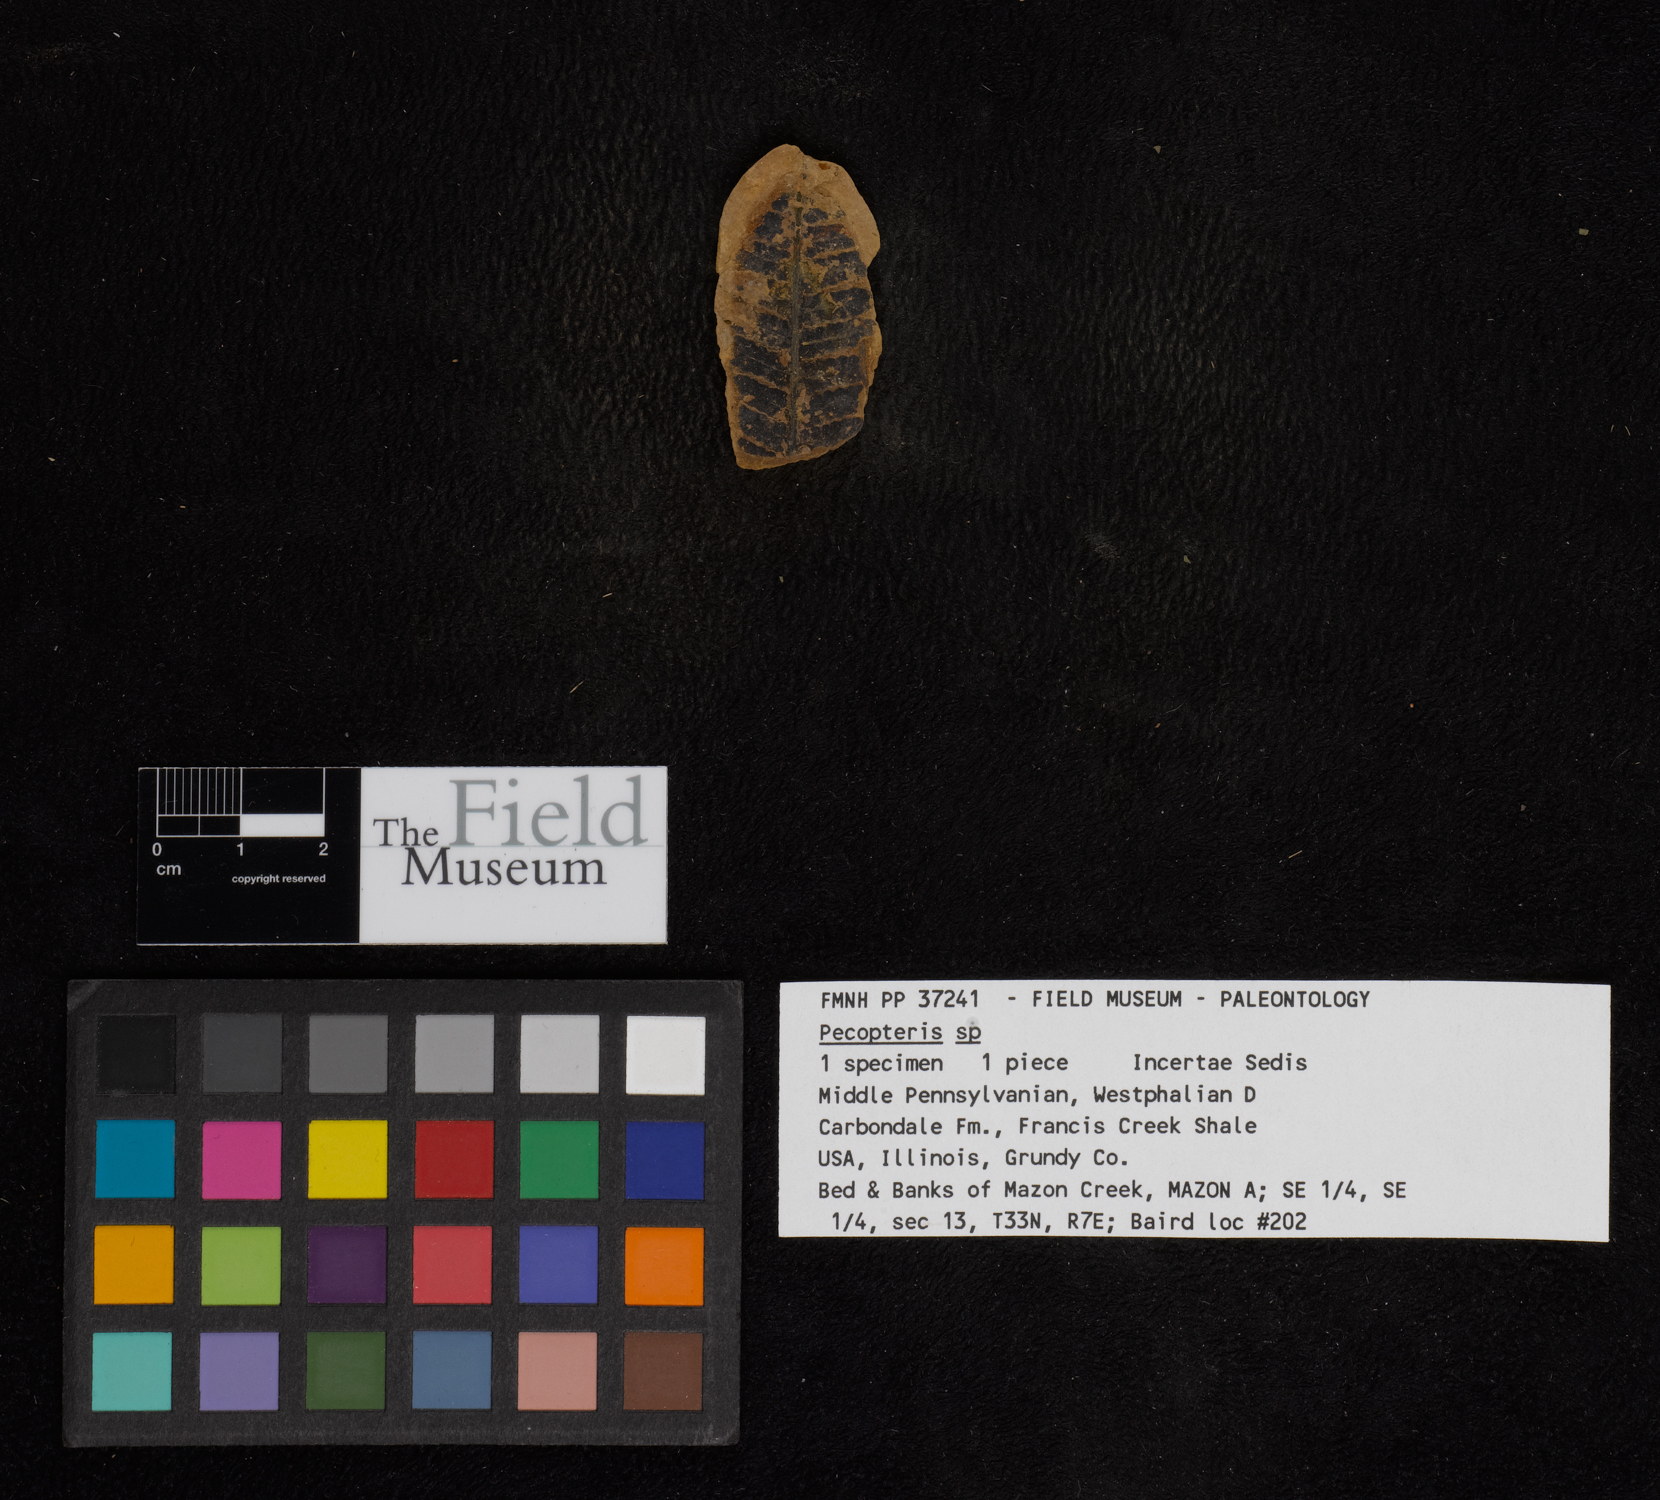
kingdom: Plantae
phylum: Tracheophyta
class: Polypodiopsida
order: Marattiales
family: Asterothecaceae
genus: Pecopteris
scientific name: Pecopteris
